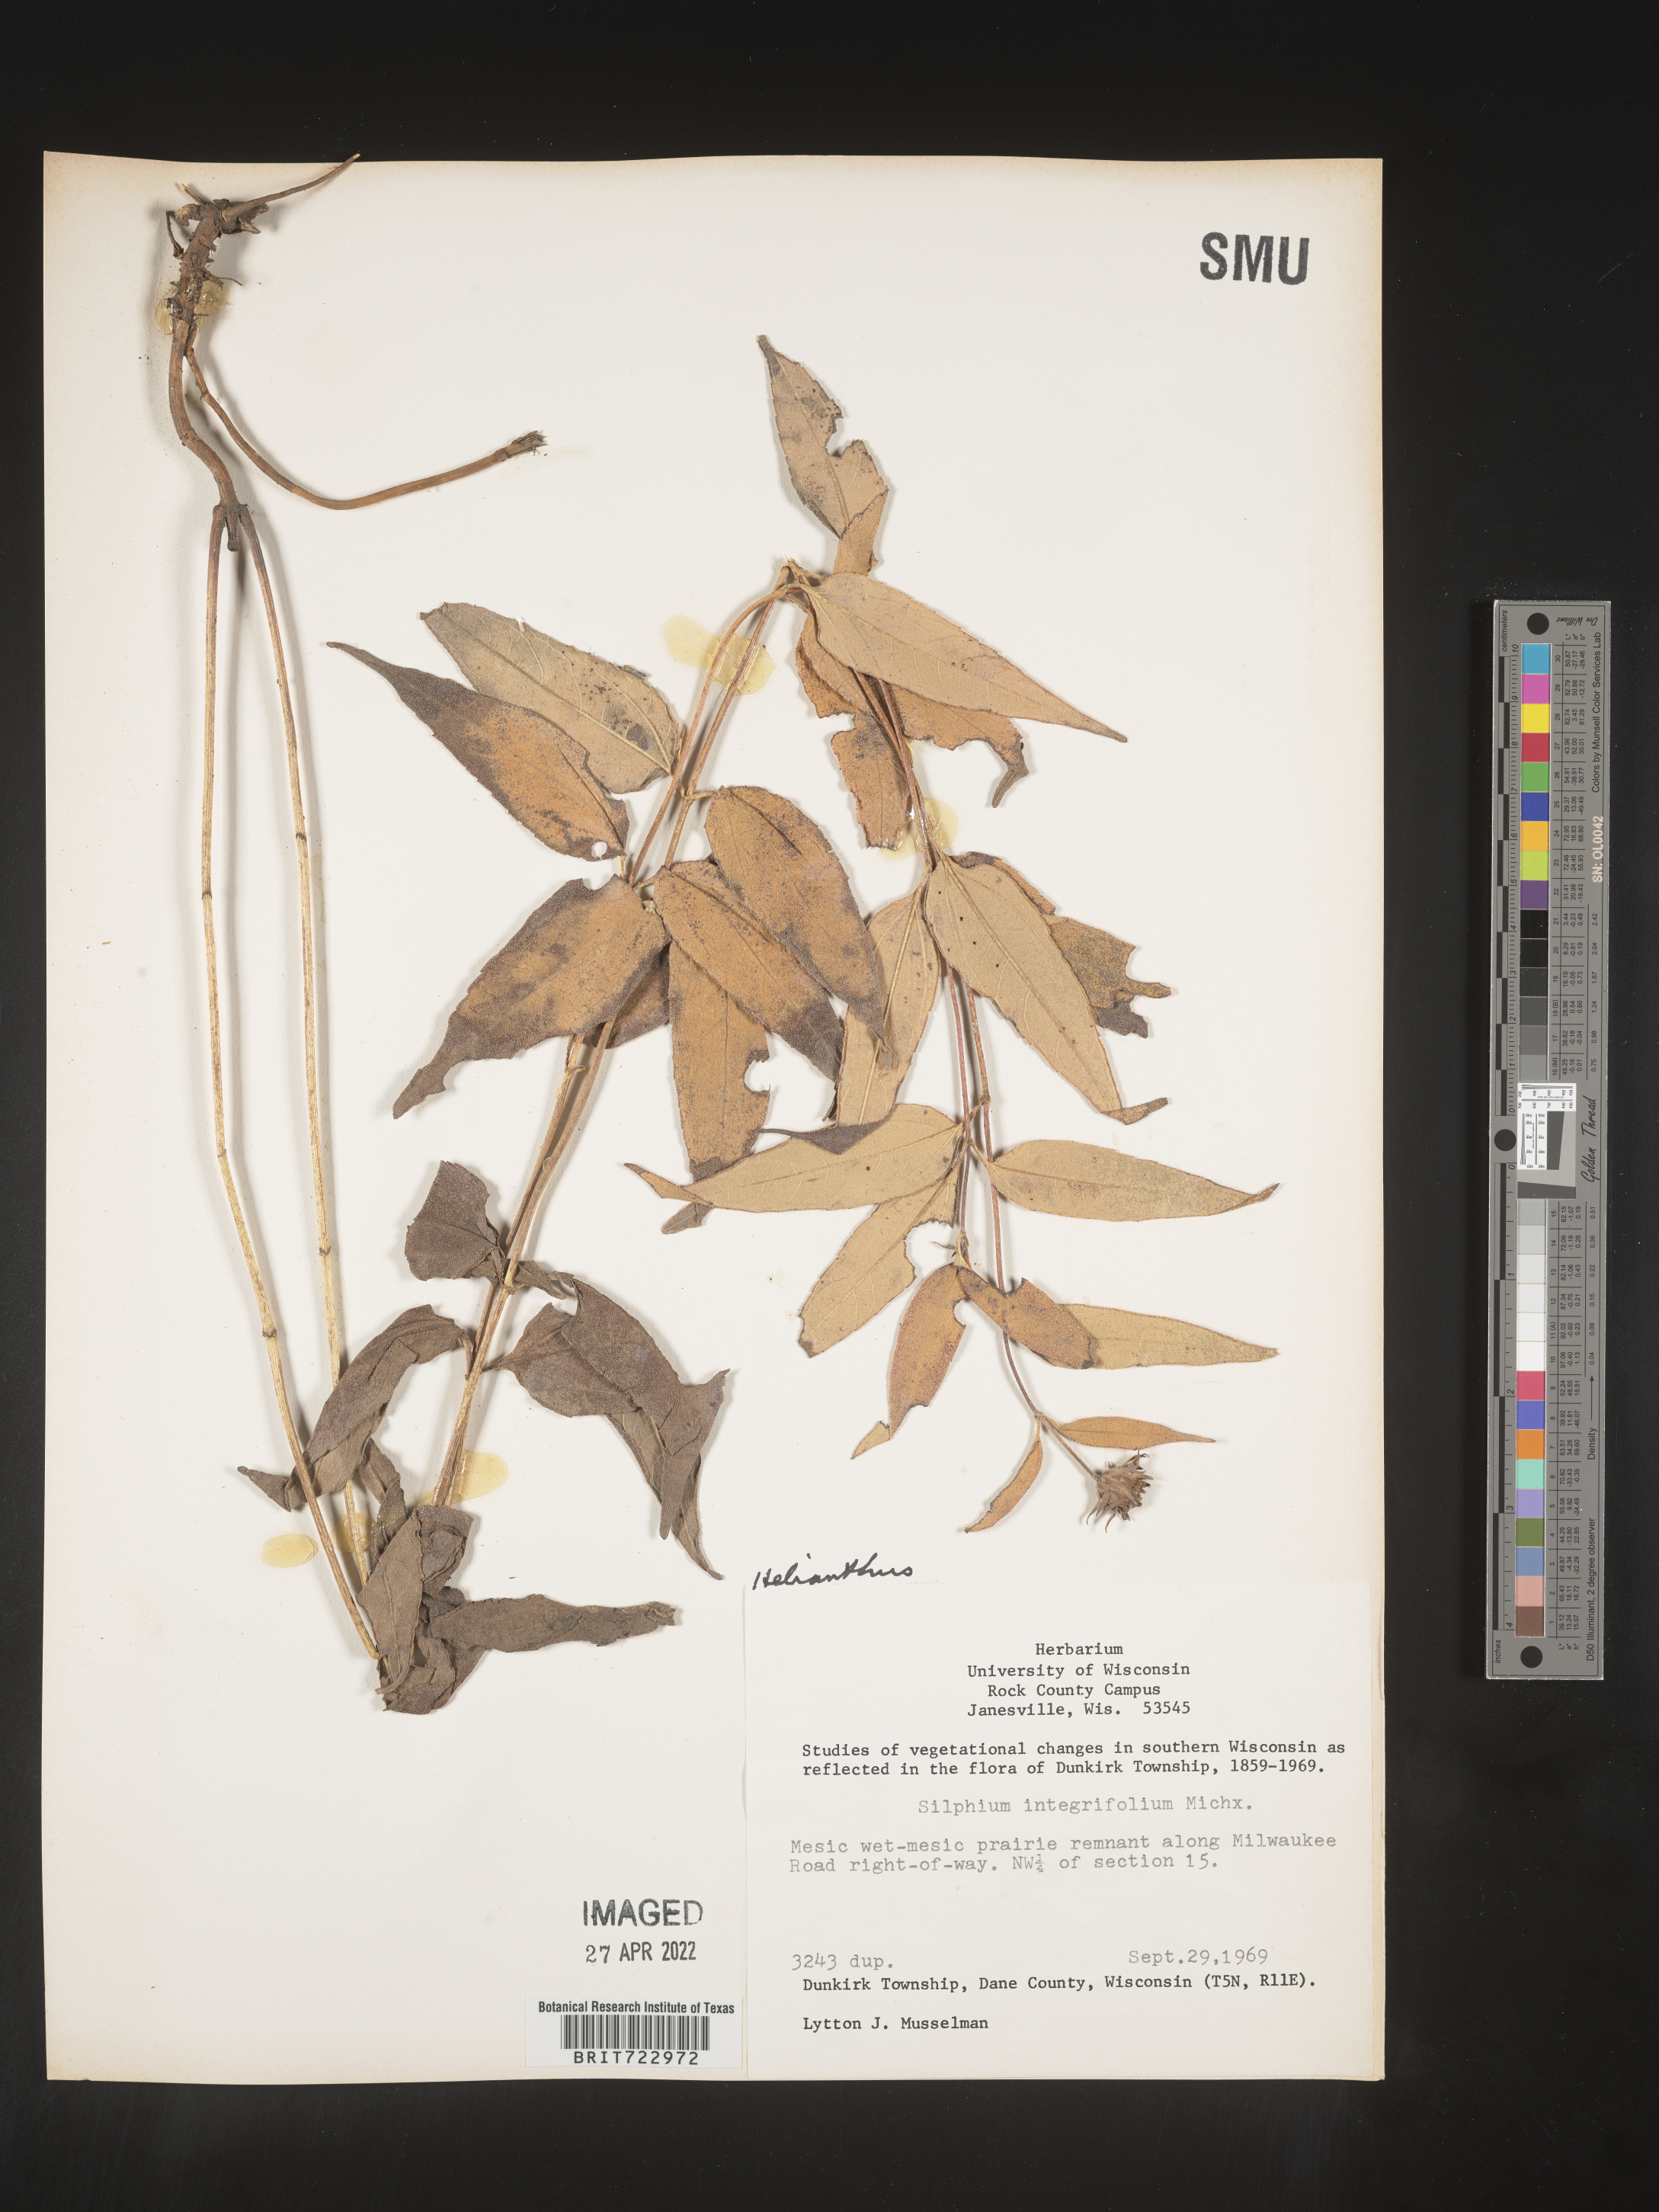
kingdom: Plantae
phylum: Tracheophyta
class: Magnoliopsida
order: Asterales
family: Asteraceae
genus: Helianthus
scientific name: Helianthus
